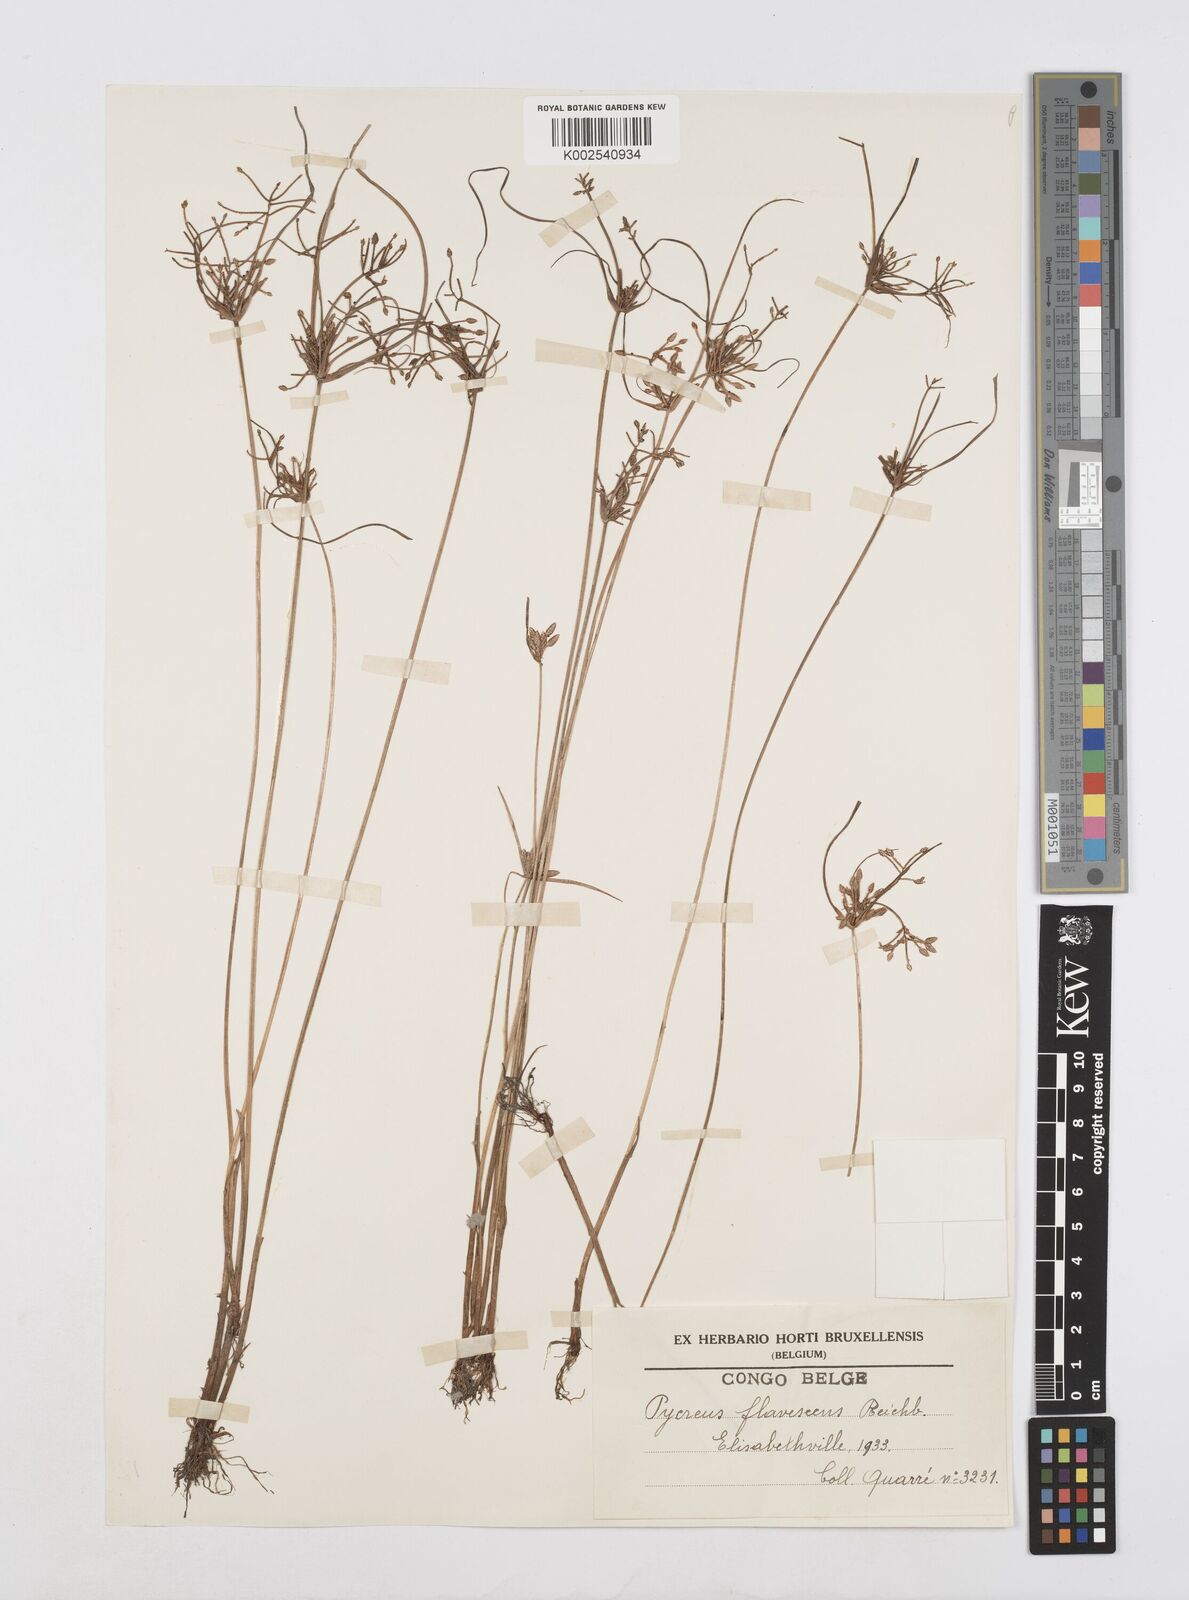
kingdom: Plantae
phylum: Tracheophyta
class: Liliopsida
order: Poales
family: Cyperaceae
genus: Cyperus
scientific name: Cyperus flavescens
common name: Yellow galingale
